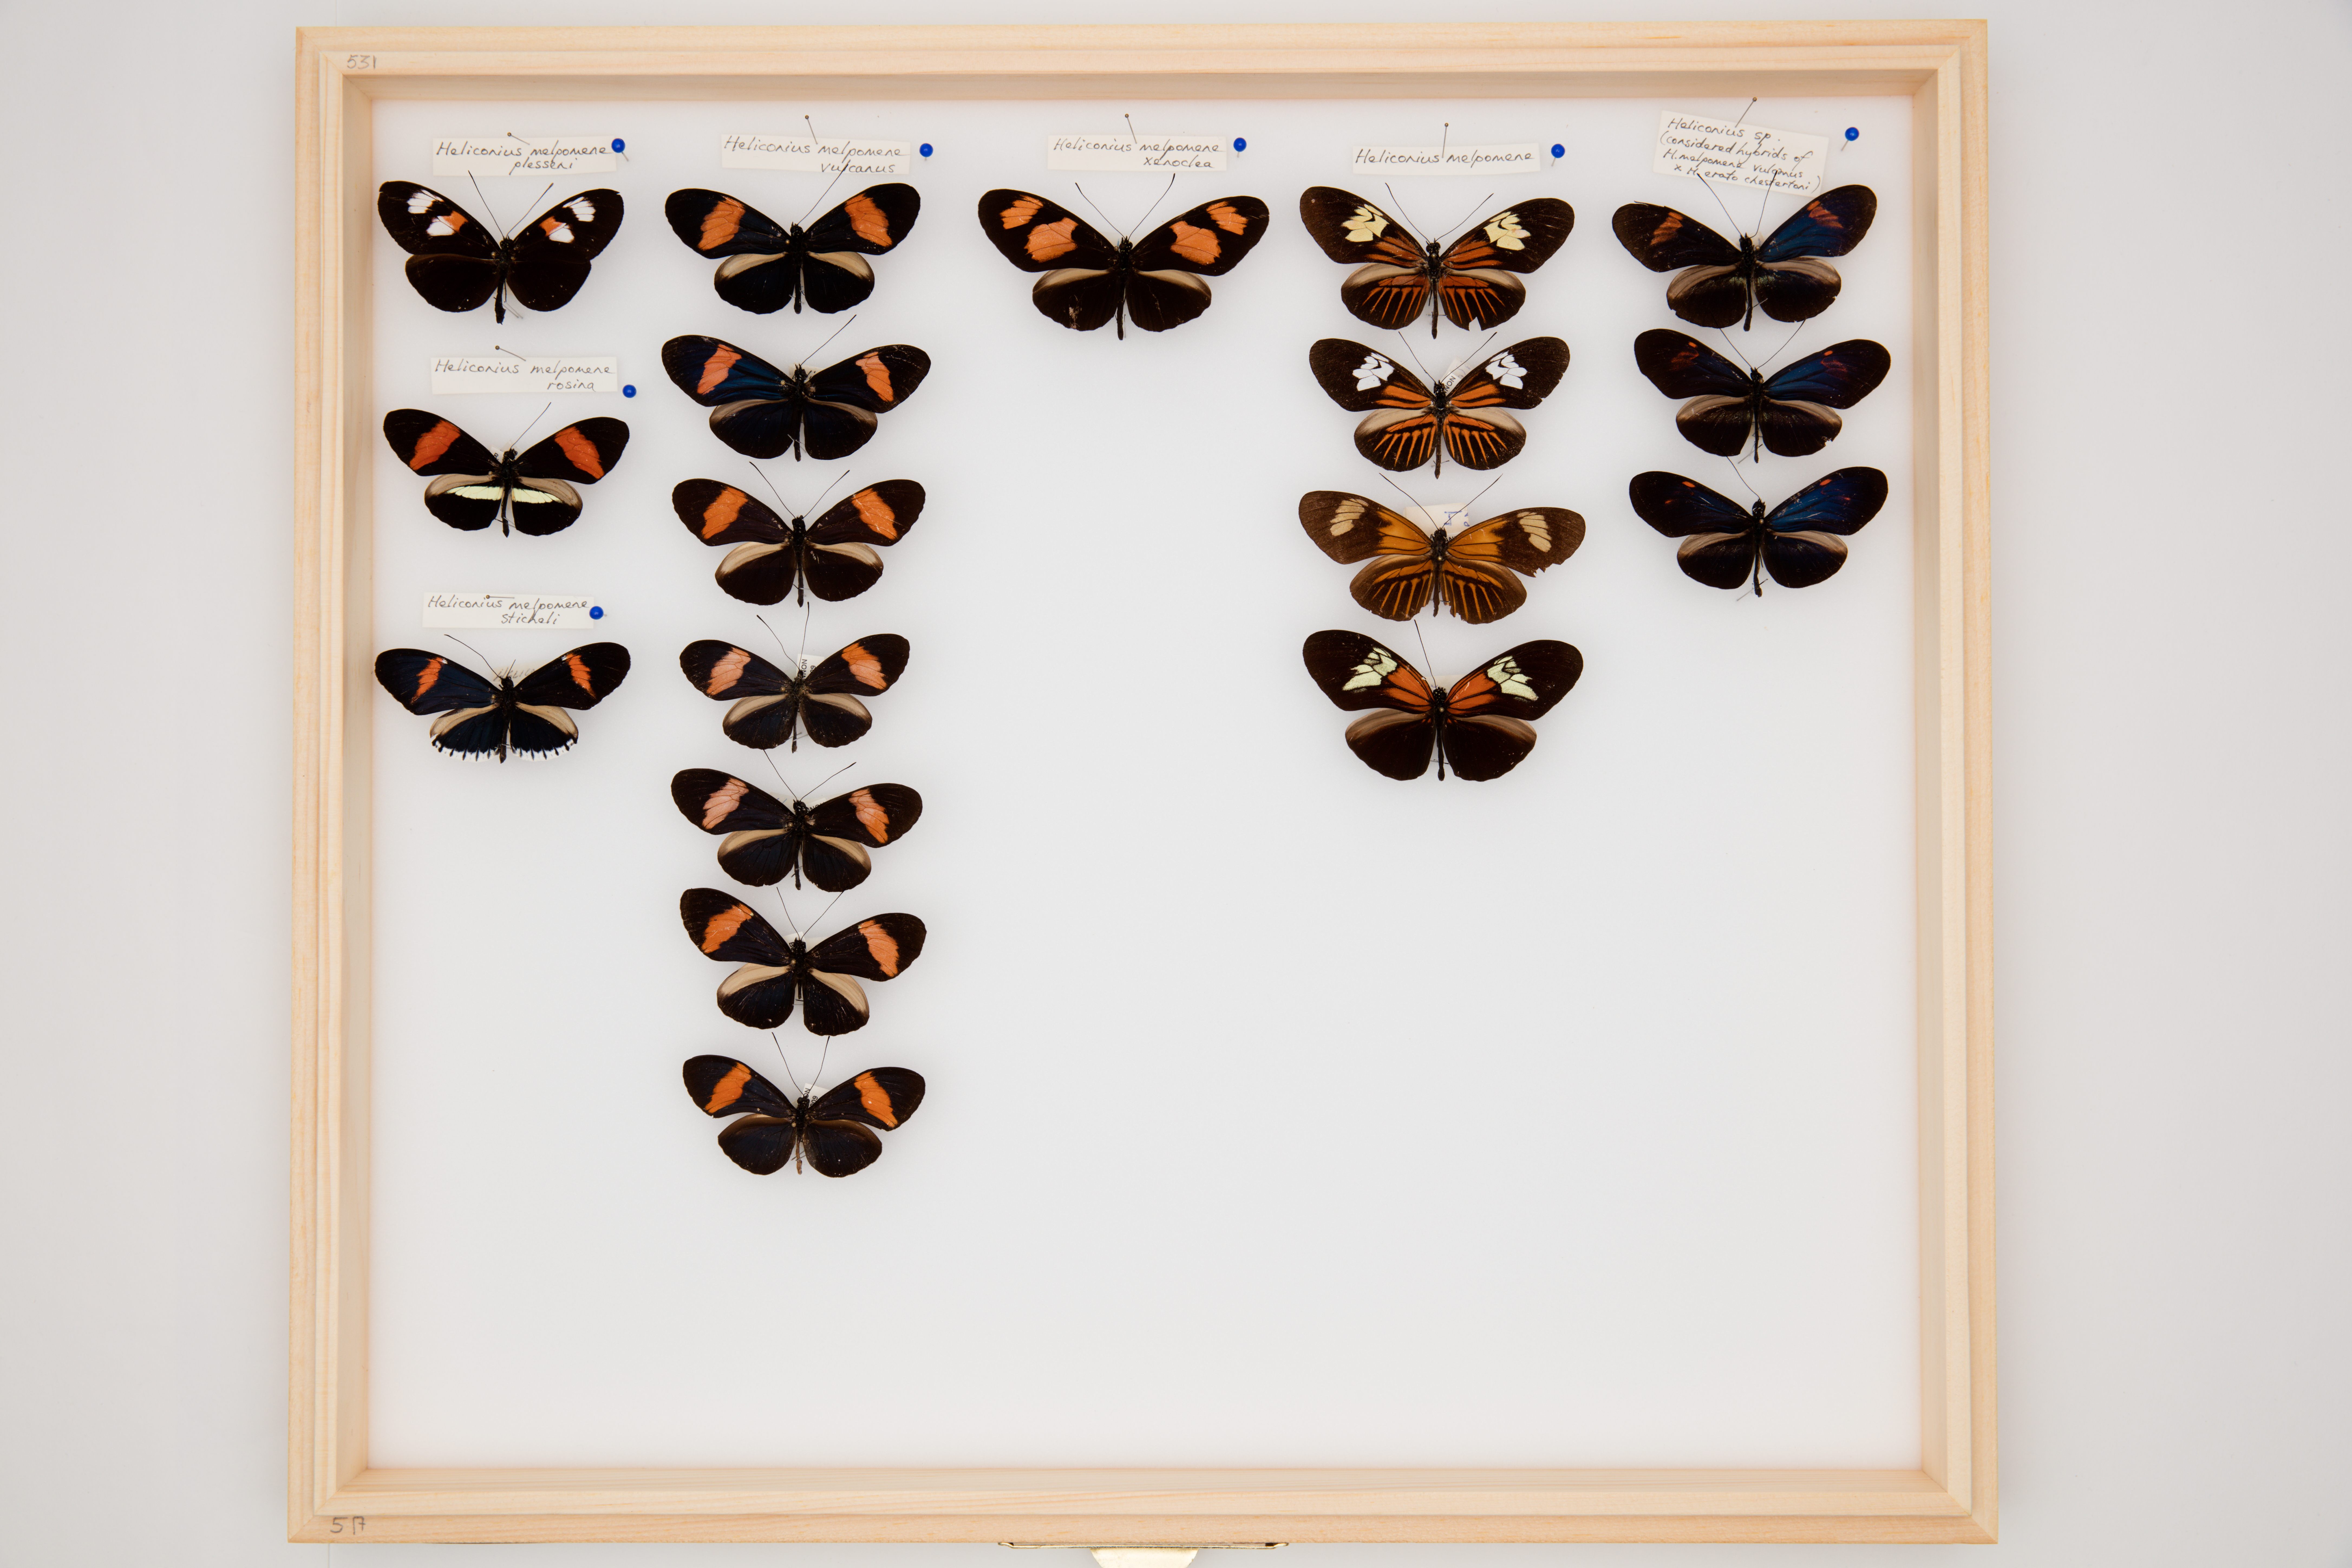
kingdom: Animalia
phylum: Arthropoda
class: Insecta
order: Lepidoptera
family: Nymphalidae
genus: Heliconius
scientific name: Heliconius melpomene
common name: Postman
